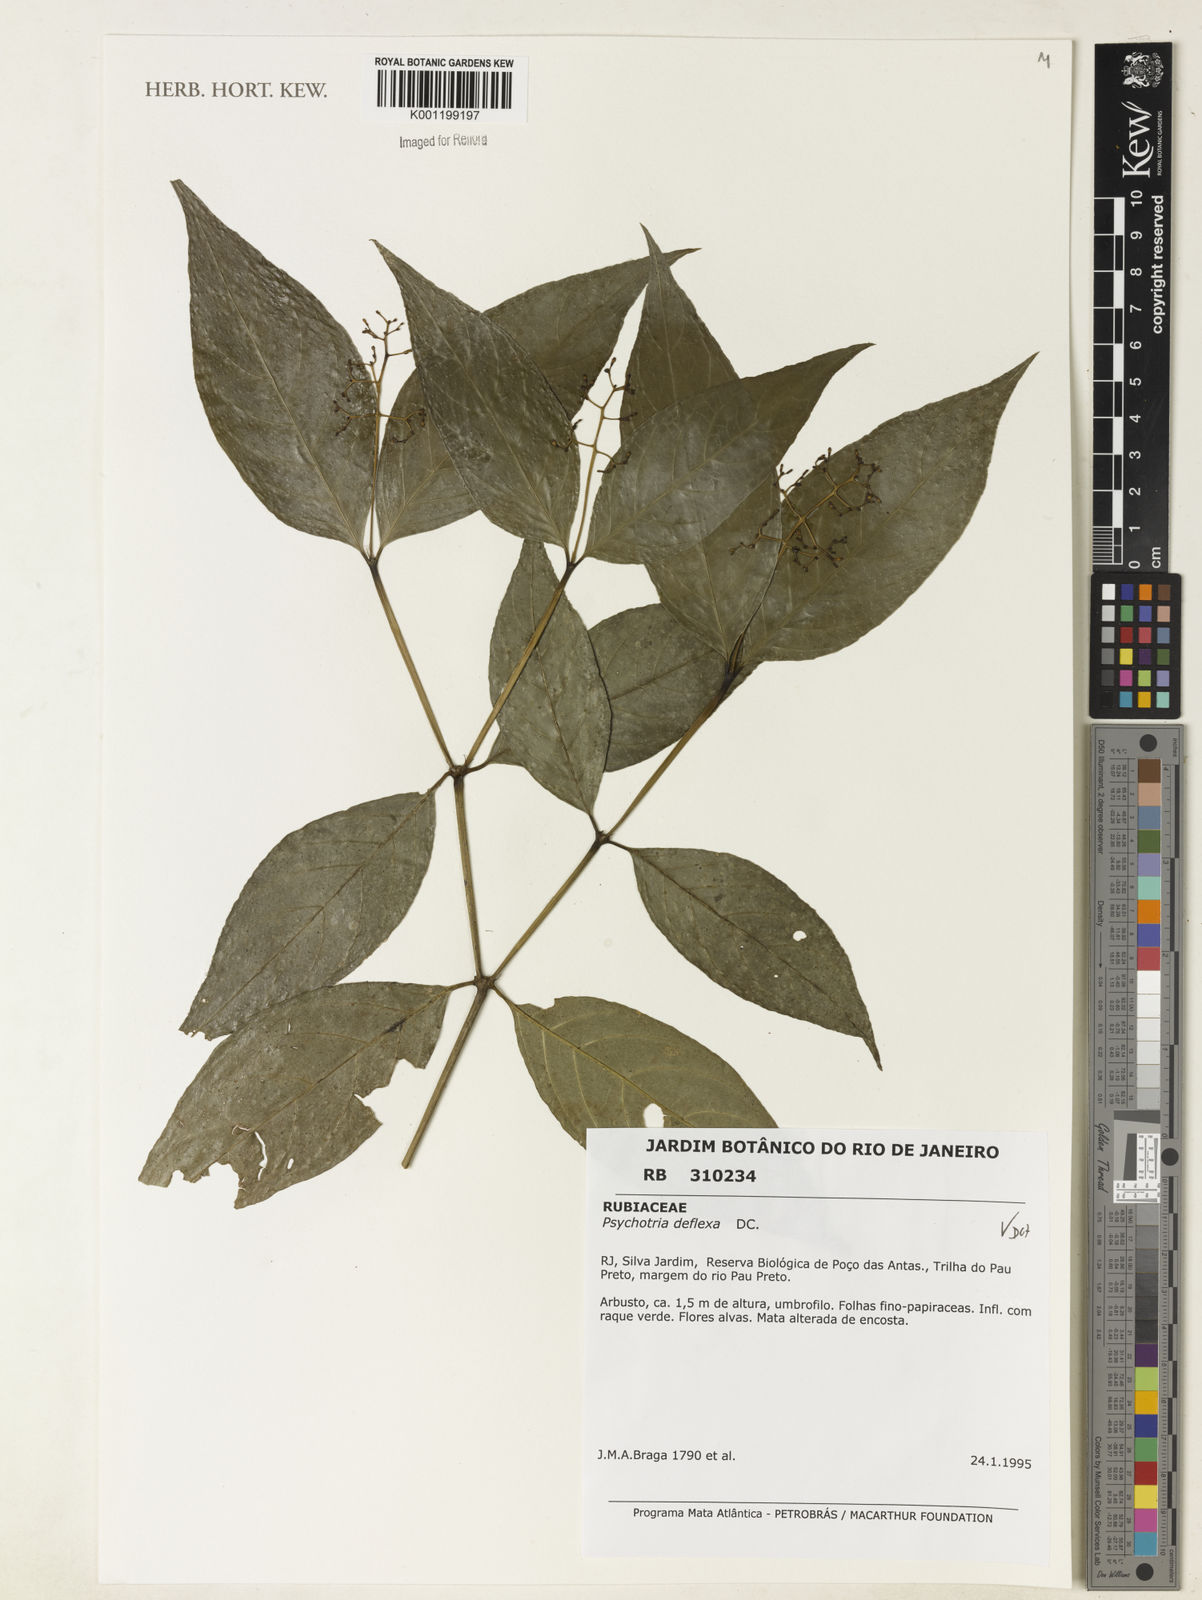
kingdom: Plantae
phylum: Tracheophyta
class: Magnoliopsida
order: Gentianales
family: Rubiaceae
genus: Palicourea
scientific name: Palicourea deflexa
